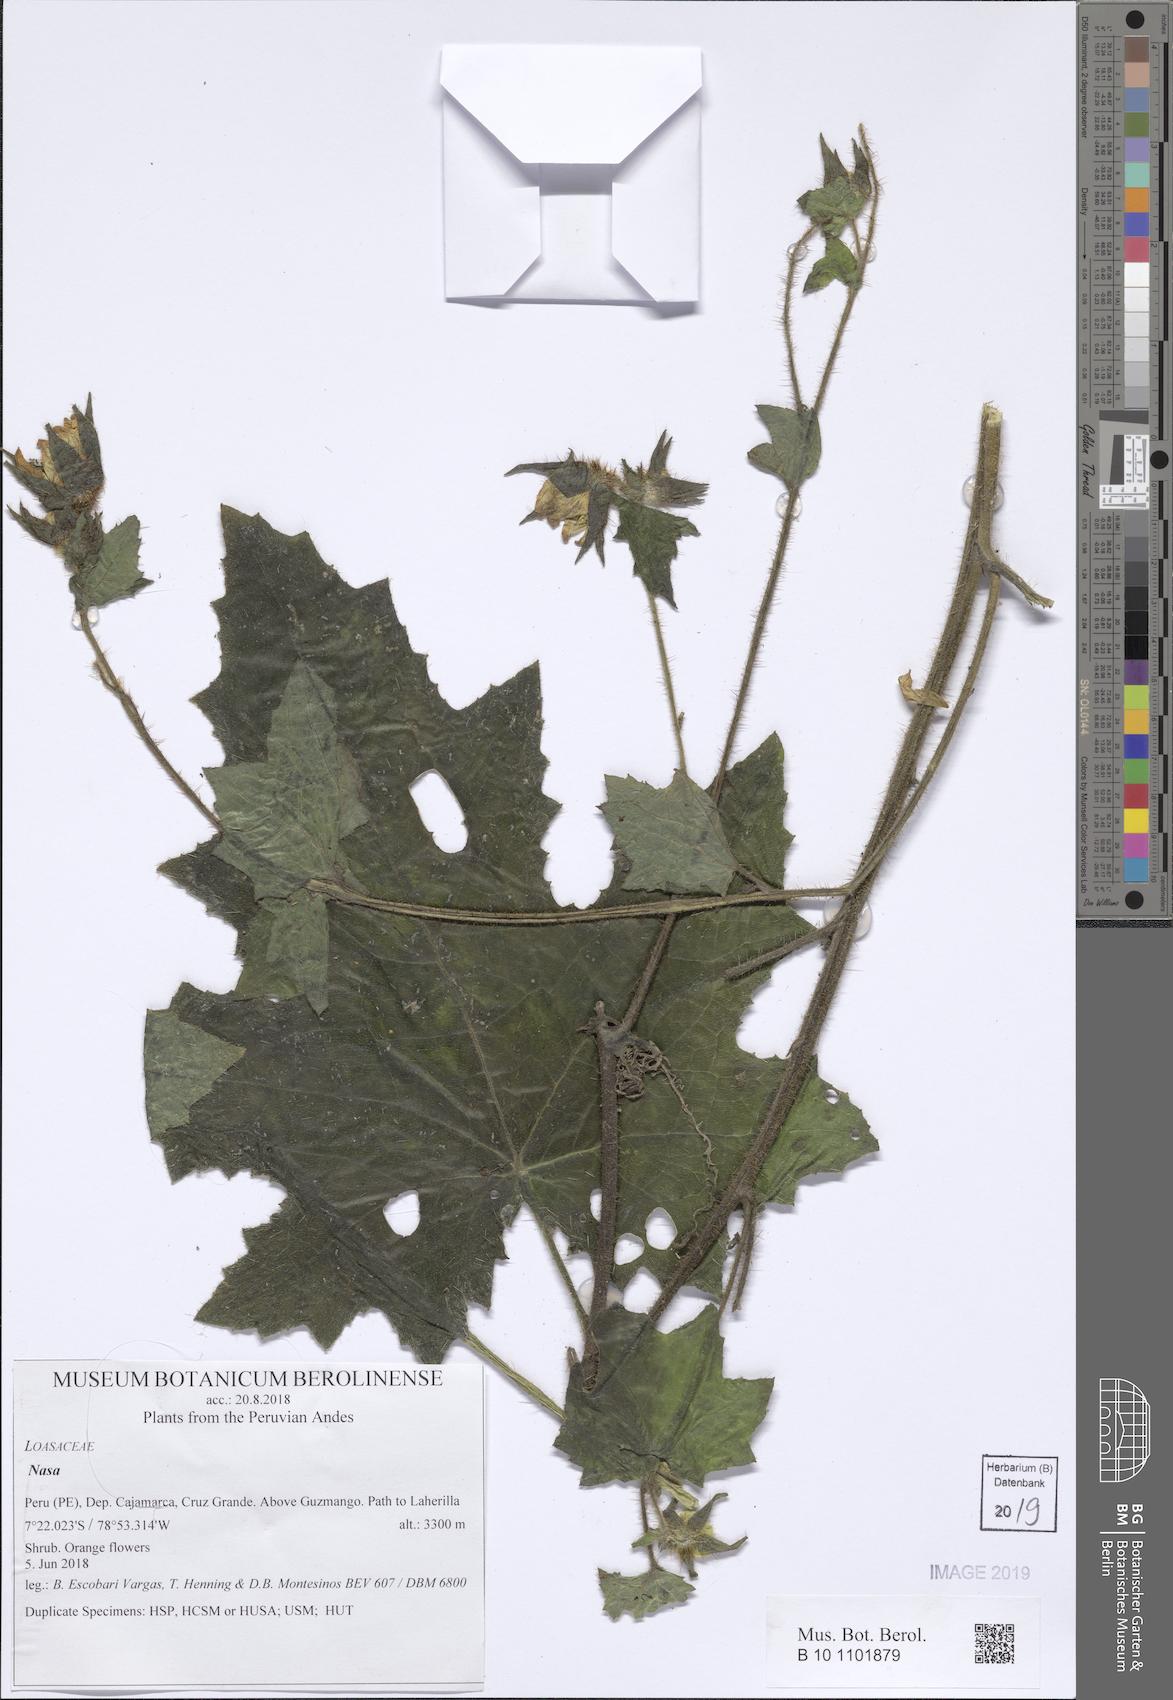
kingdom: Plantae
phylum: Tracheophyta
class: Magnoliopsida
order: Cornales
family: Loasaceae
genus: Nasa
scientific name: Nasa ranunculifolia
